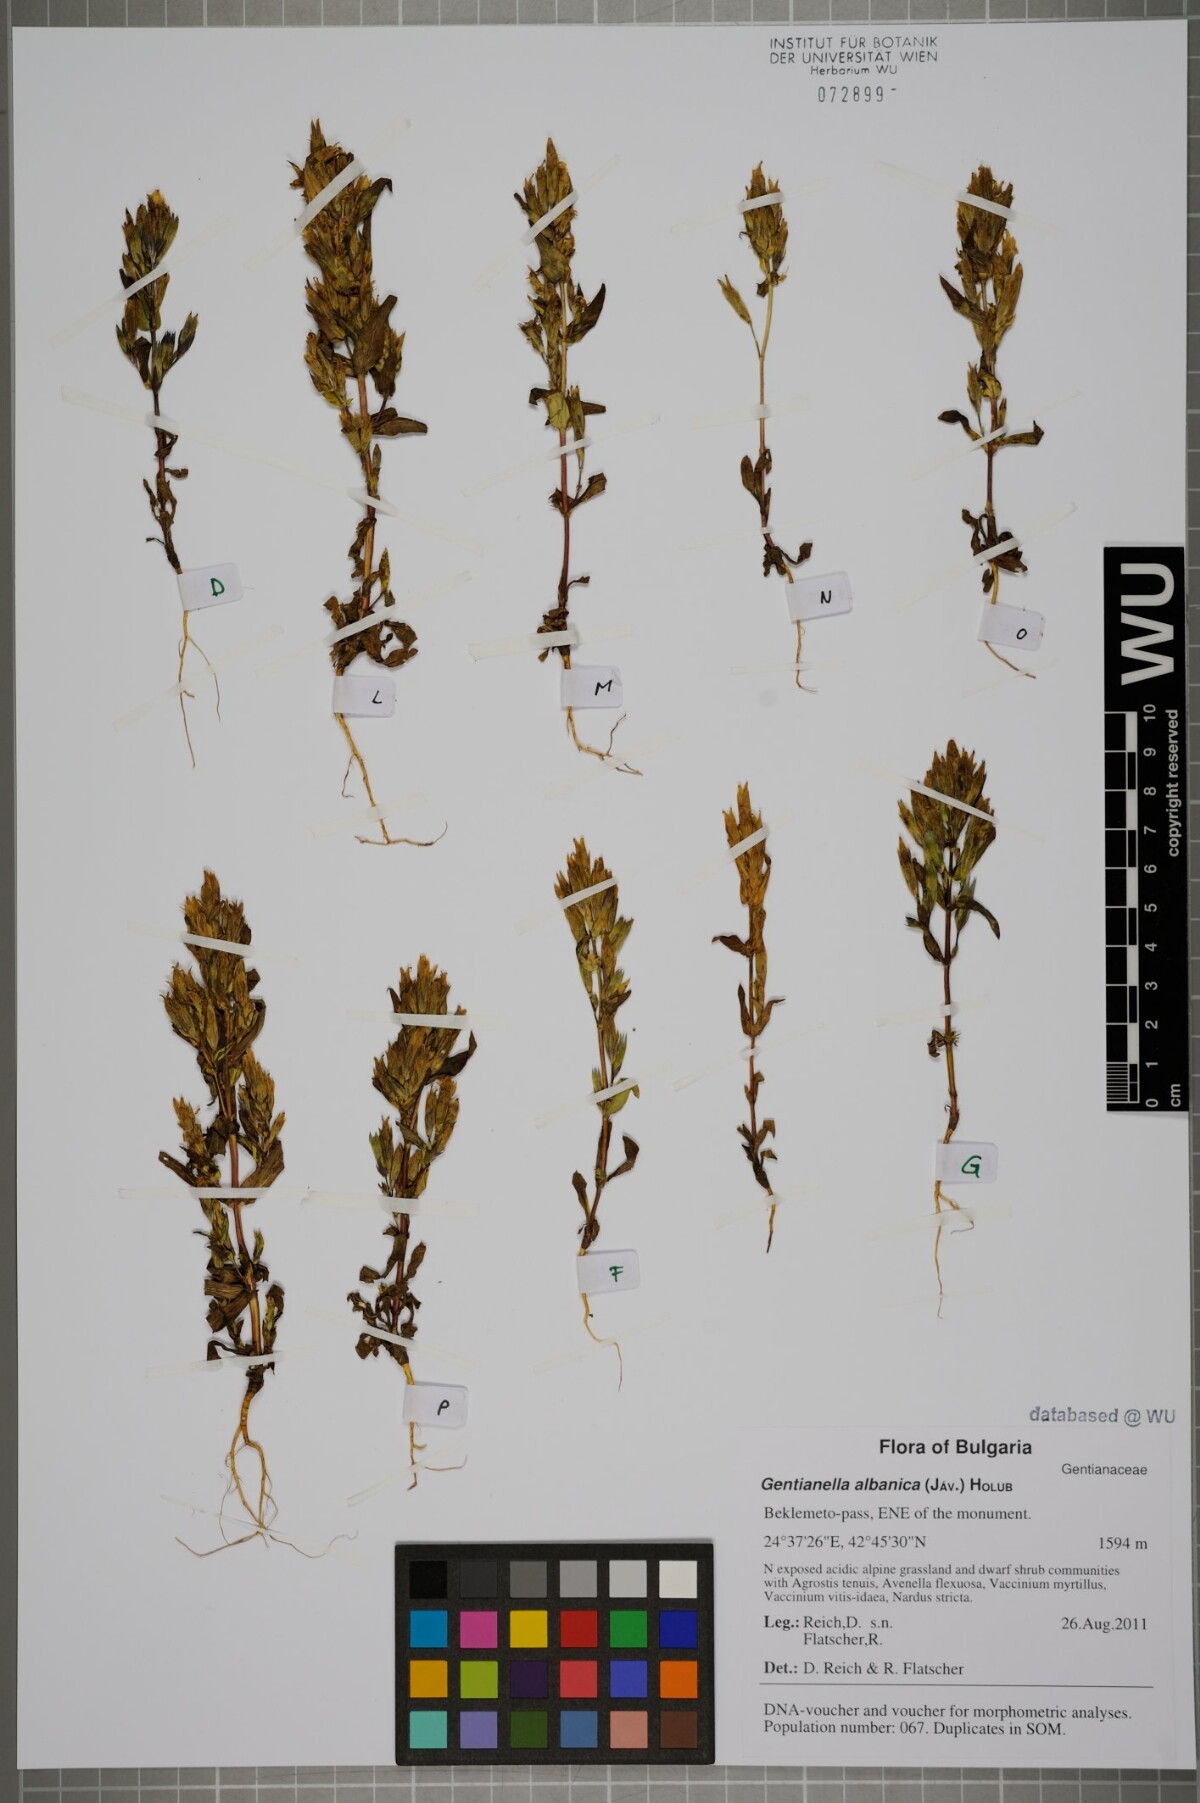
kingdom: Plantae
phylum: Tracheophyta
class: Magnoliopsida
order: Gentianales
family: Gentianaceae
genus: Gentianella
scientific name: Gentianella albanica
